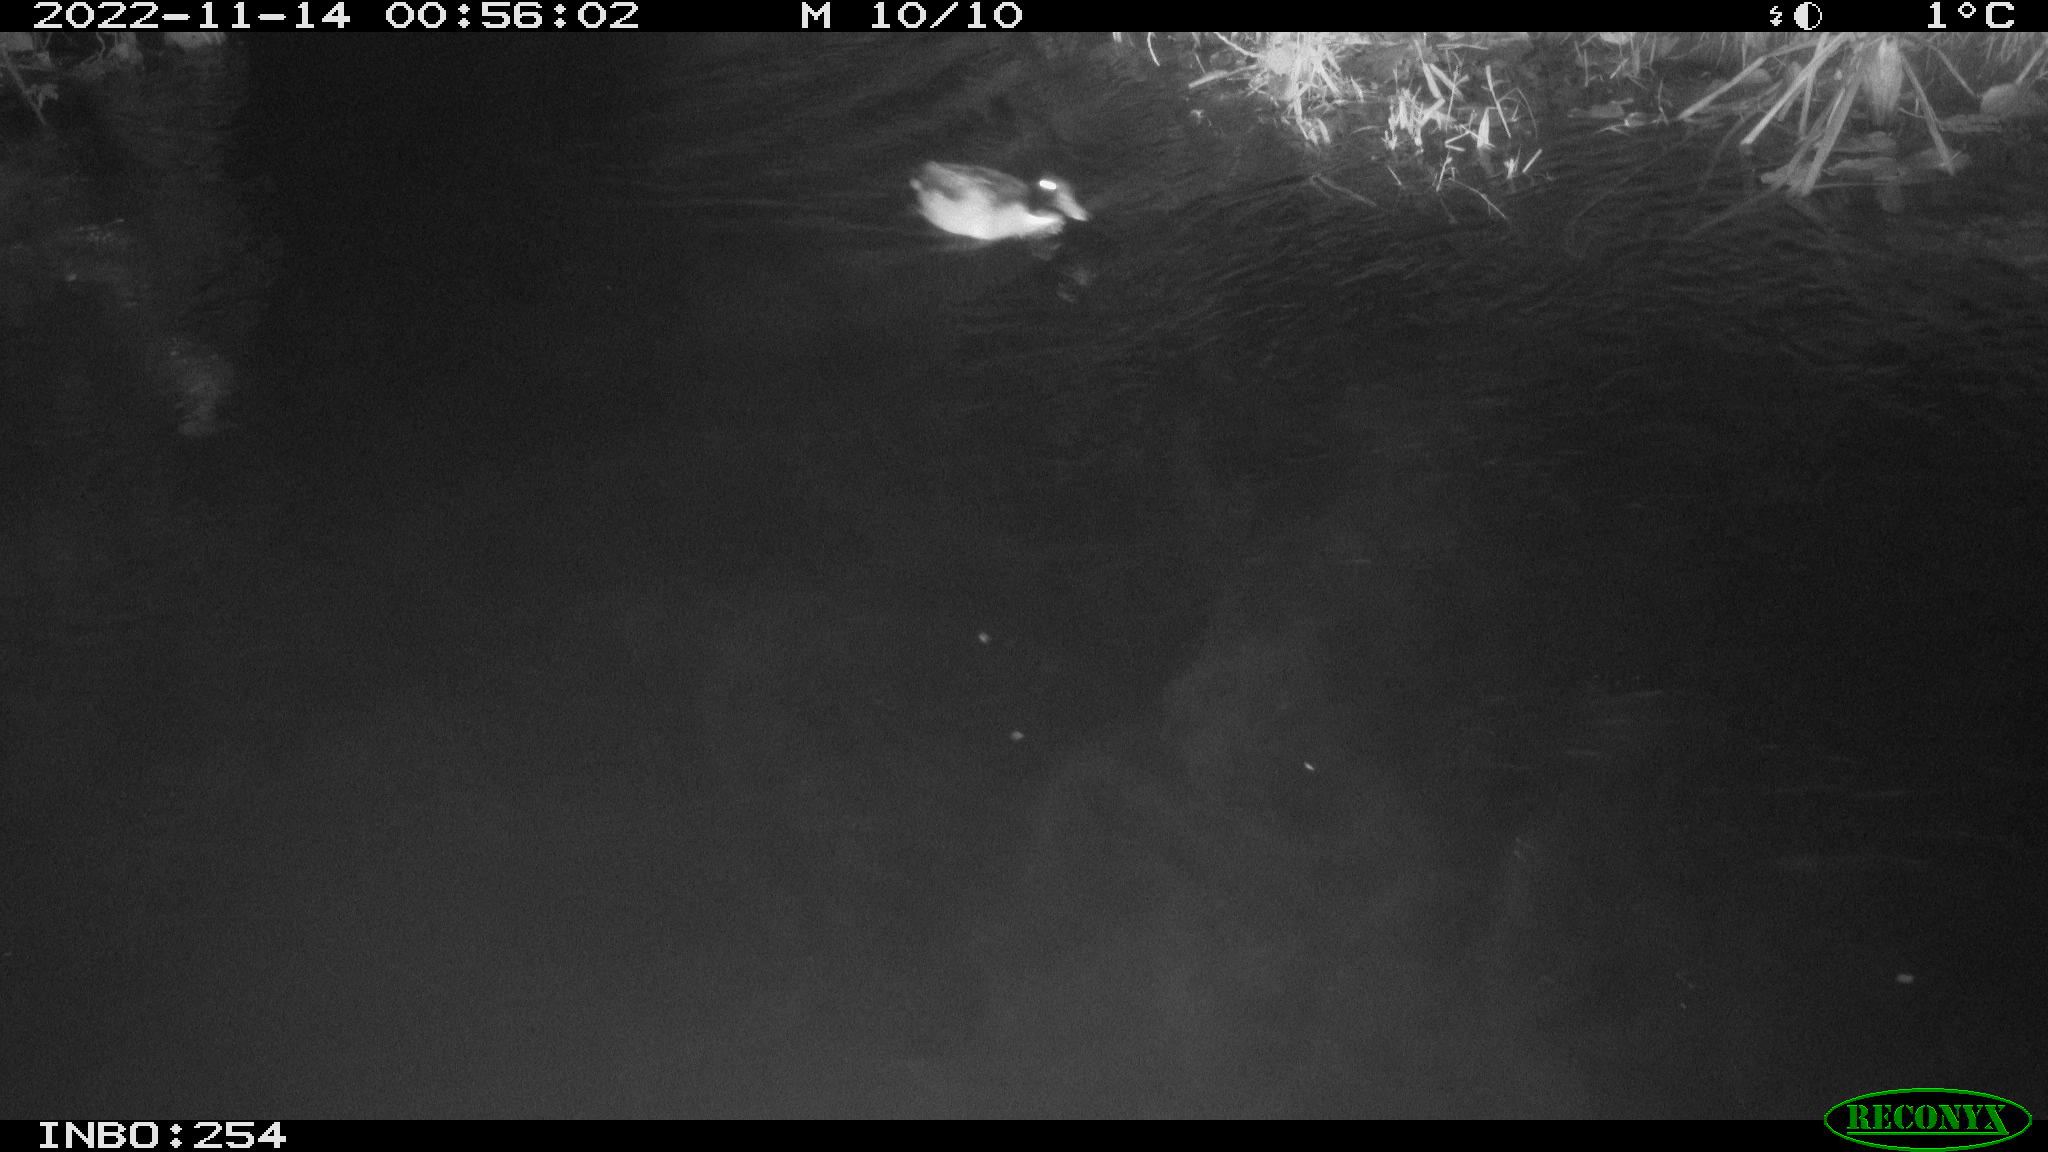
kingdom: Animalia
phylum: Chordata
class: Aves
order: Anseriformes
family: Anatidae
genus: Anas
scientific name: Anas
